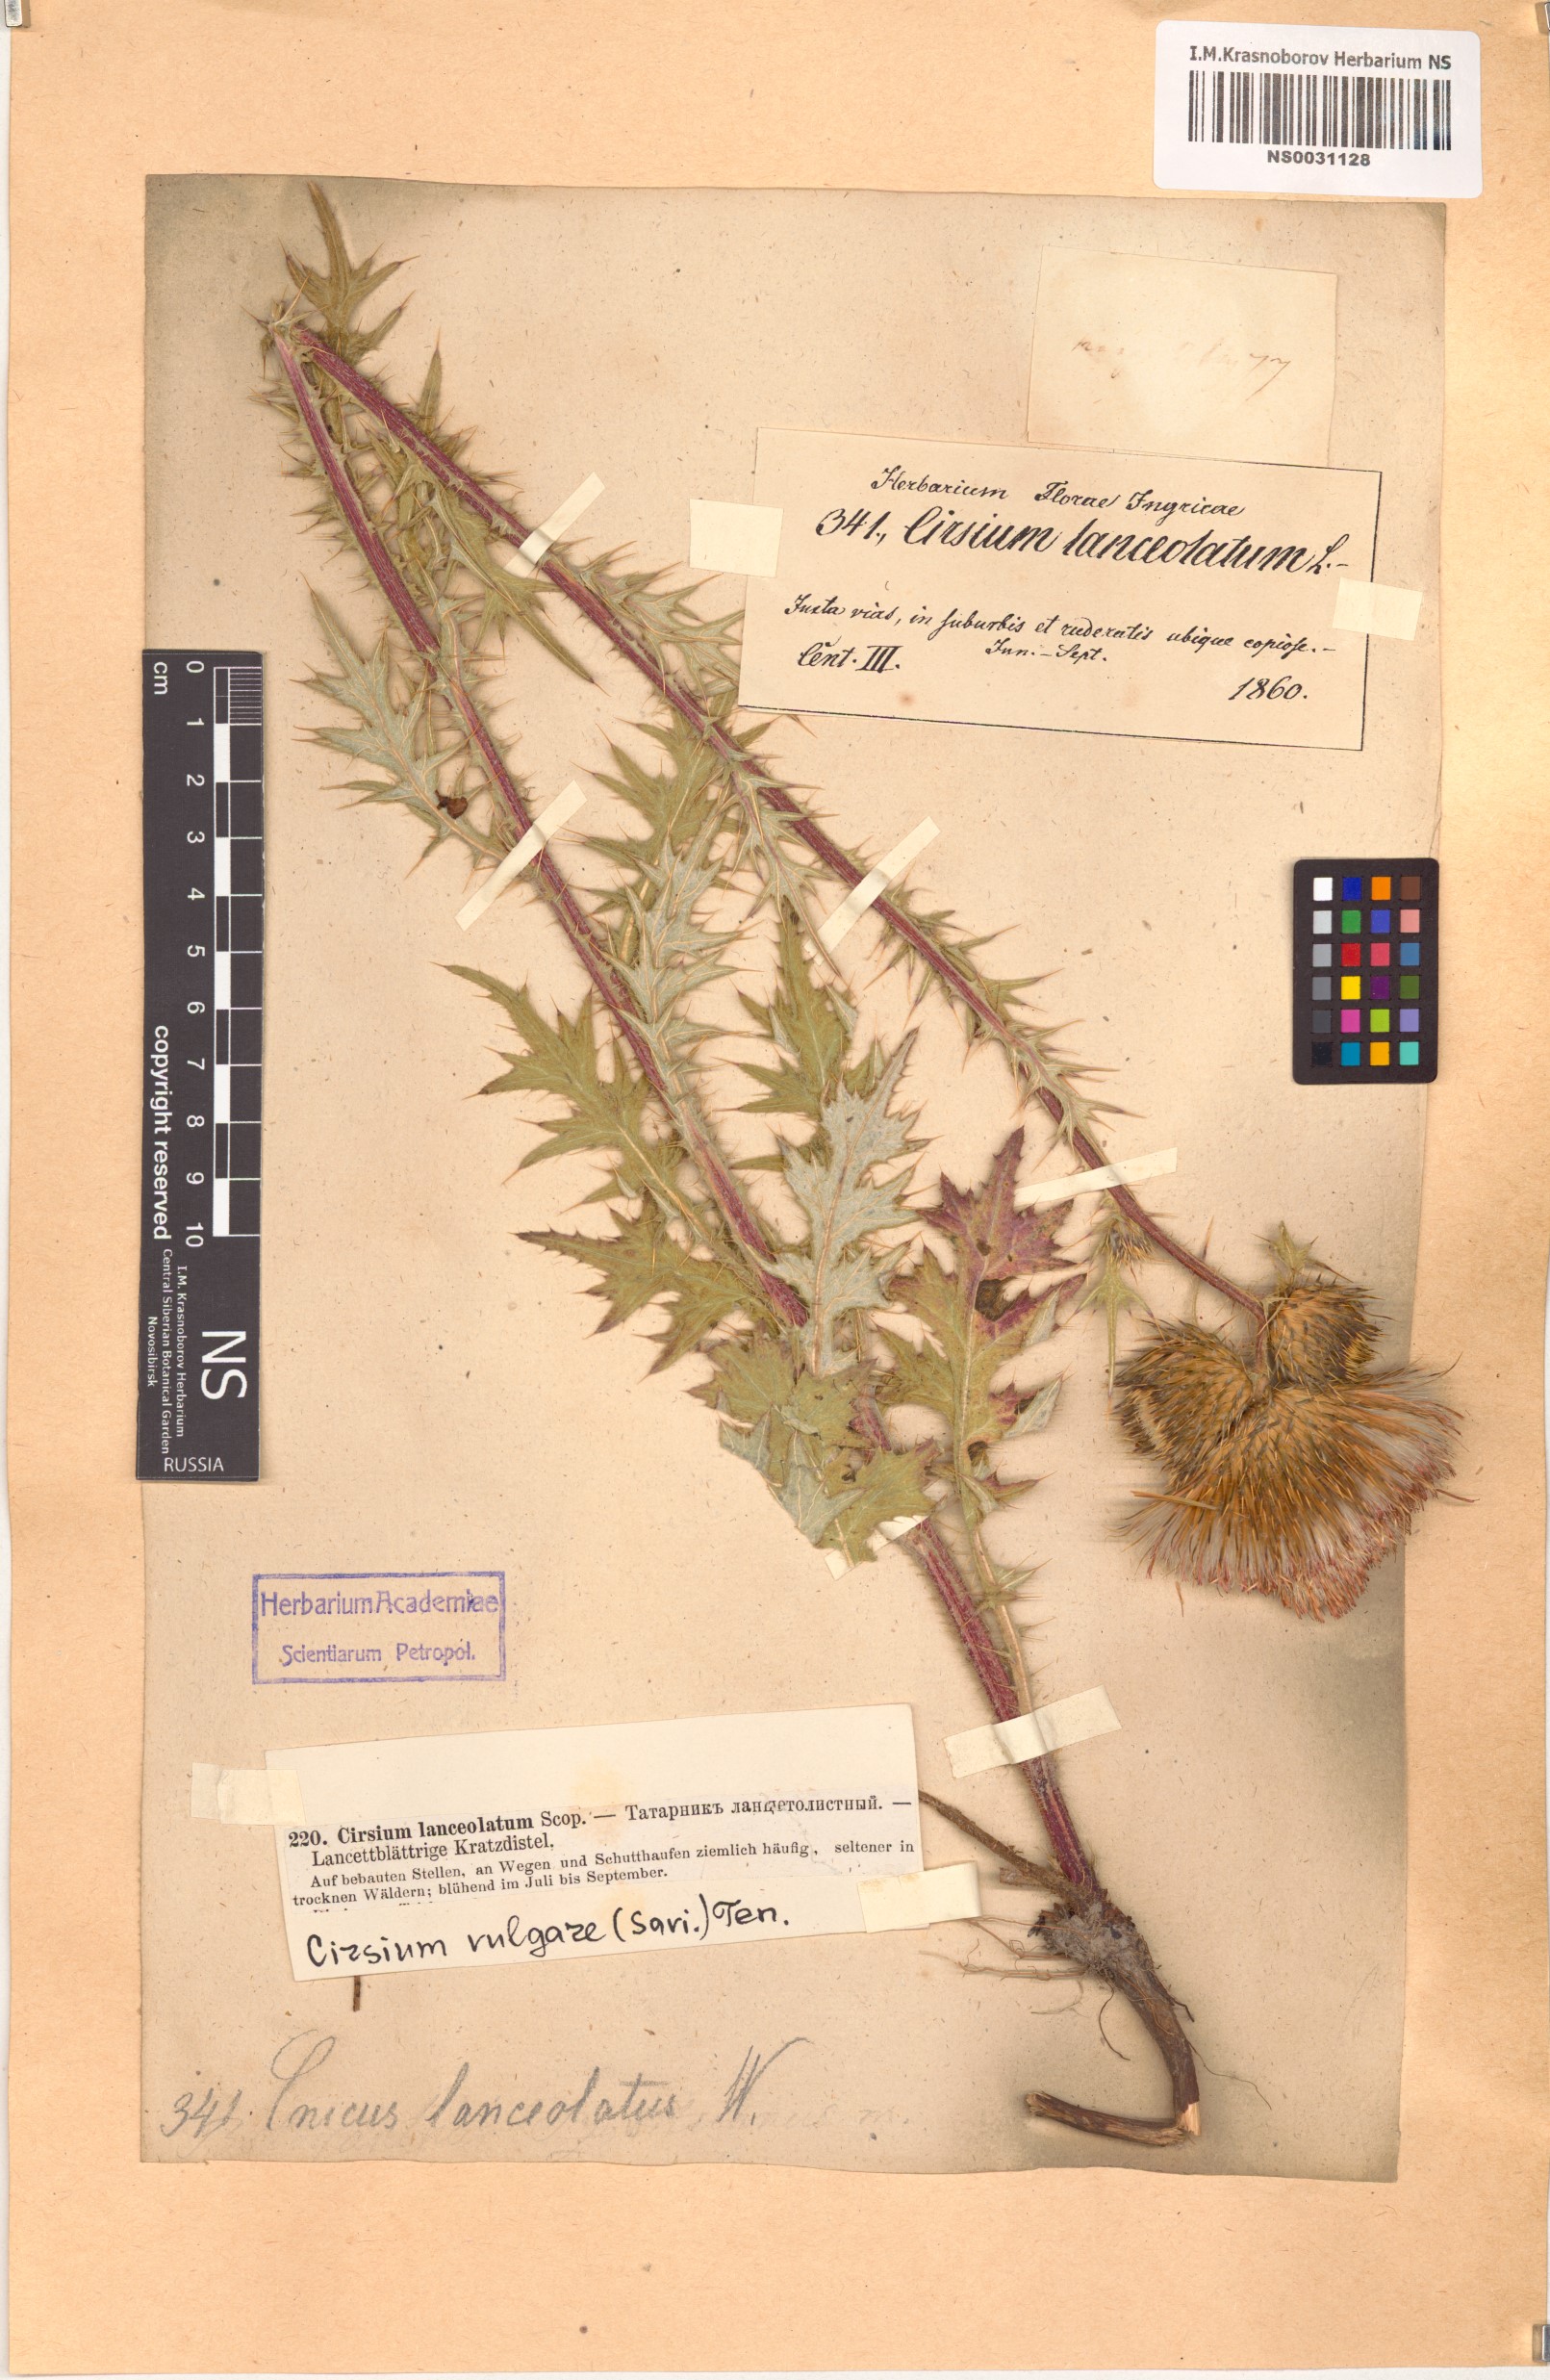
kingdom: Plantae
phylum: Tracheophyta
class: Magnoliopsida
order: Asterales
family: Asteraceae
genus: Cirsium
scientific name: Cirsium vulgare
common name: Bull thistle
